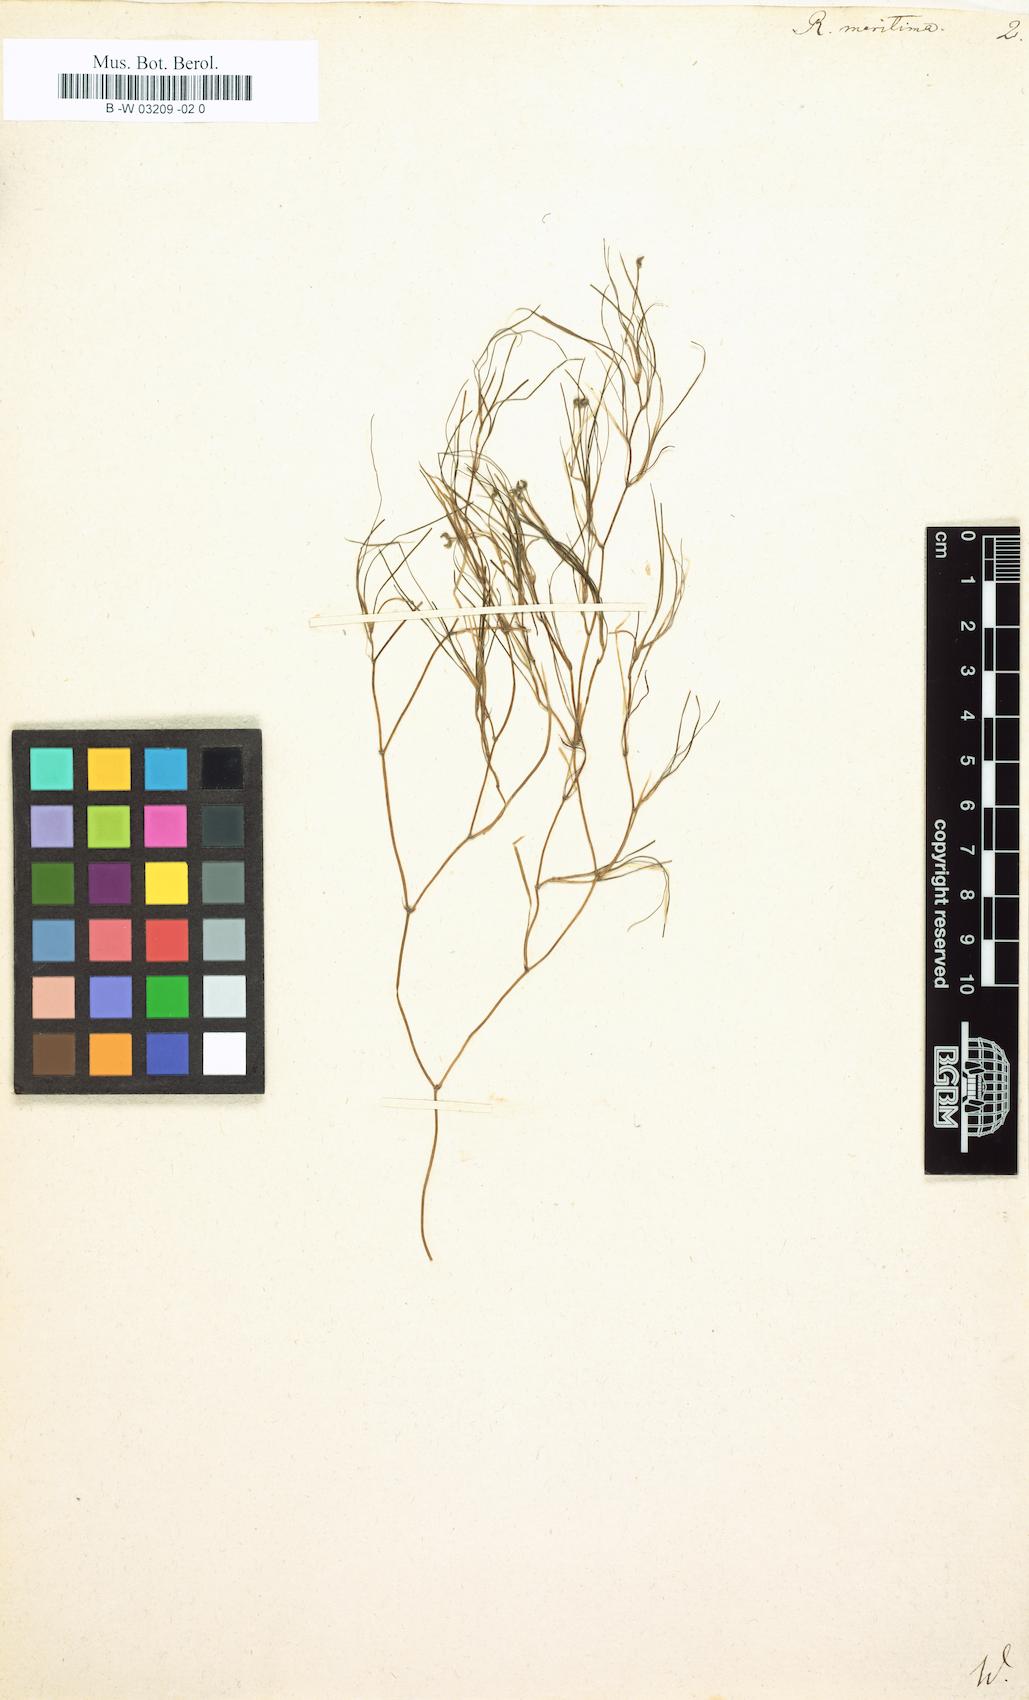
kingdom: Plantae
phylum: Tracheophyta
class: Liliopsida
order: Alismatales
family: Ruppiaceae
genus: Ruppia
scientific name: Ruppia maritima
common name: Beaked tasselweed
